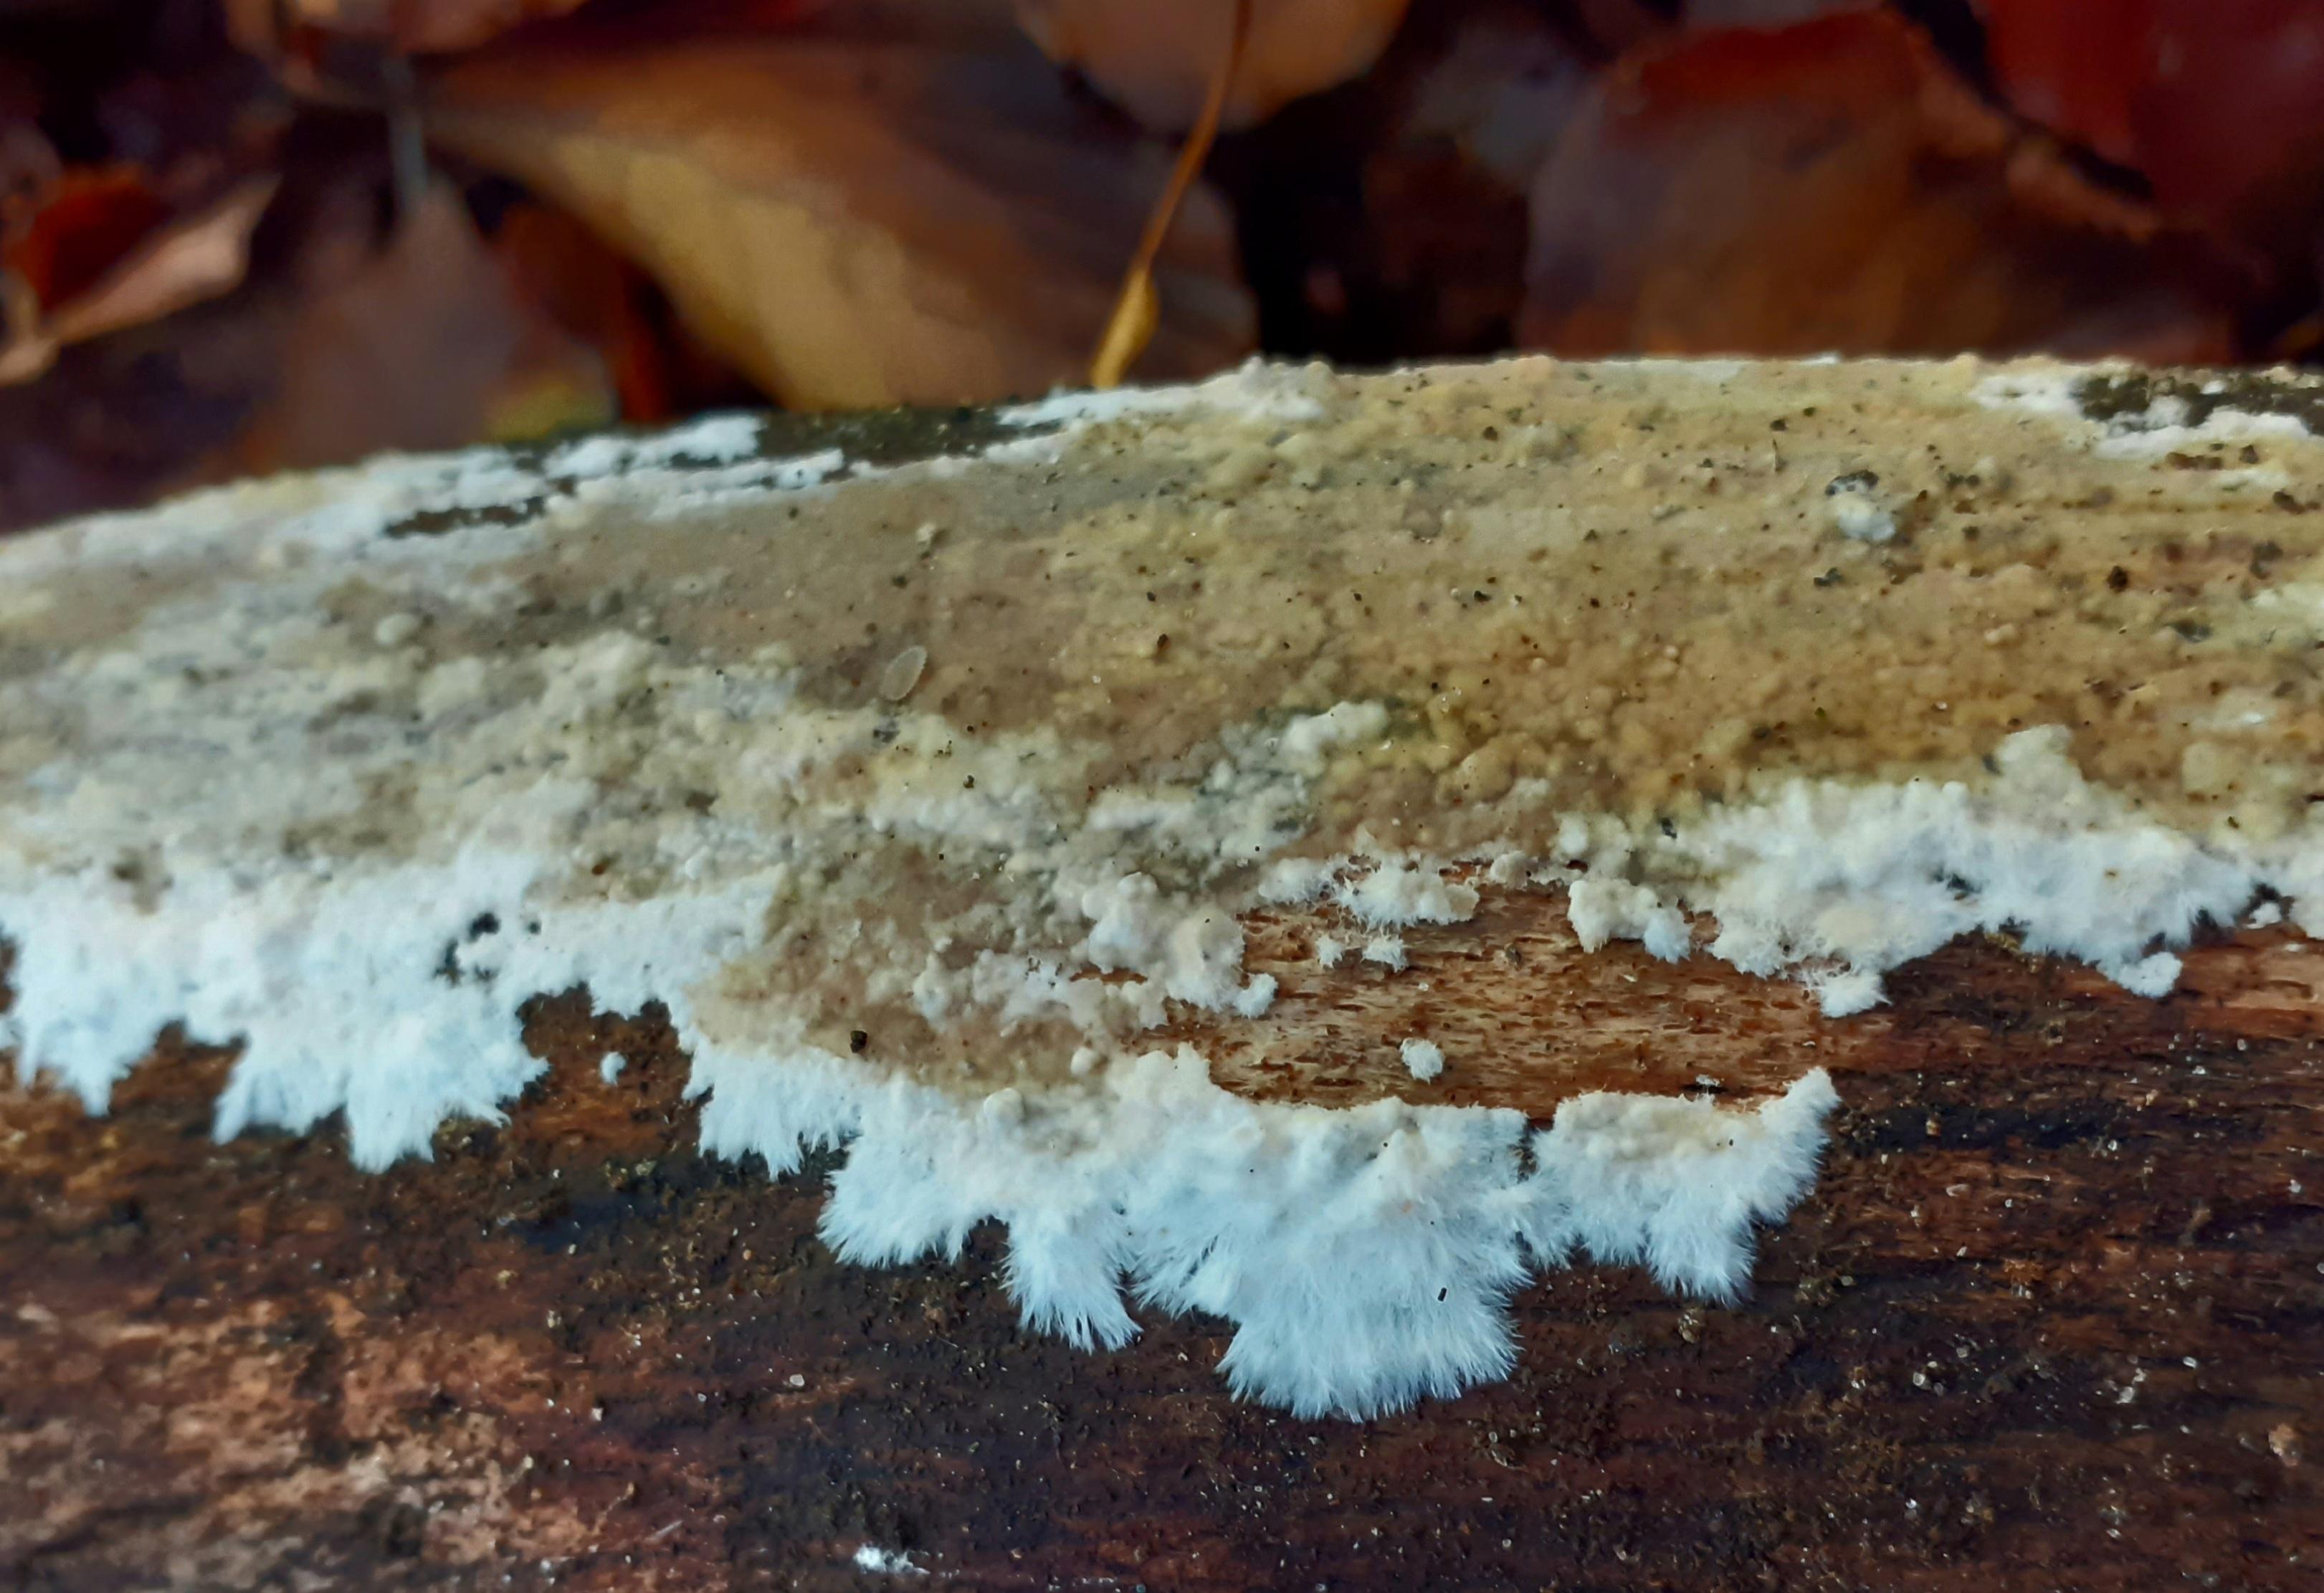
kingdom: Fungi
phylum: Basidiomycota
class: Agaricomycetes
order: Boletales
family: Coniophoraceae
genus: Coniophora
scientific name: Coniophora puteana
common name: gul tømmersvamp
